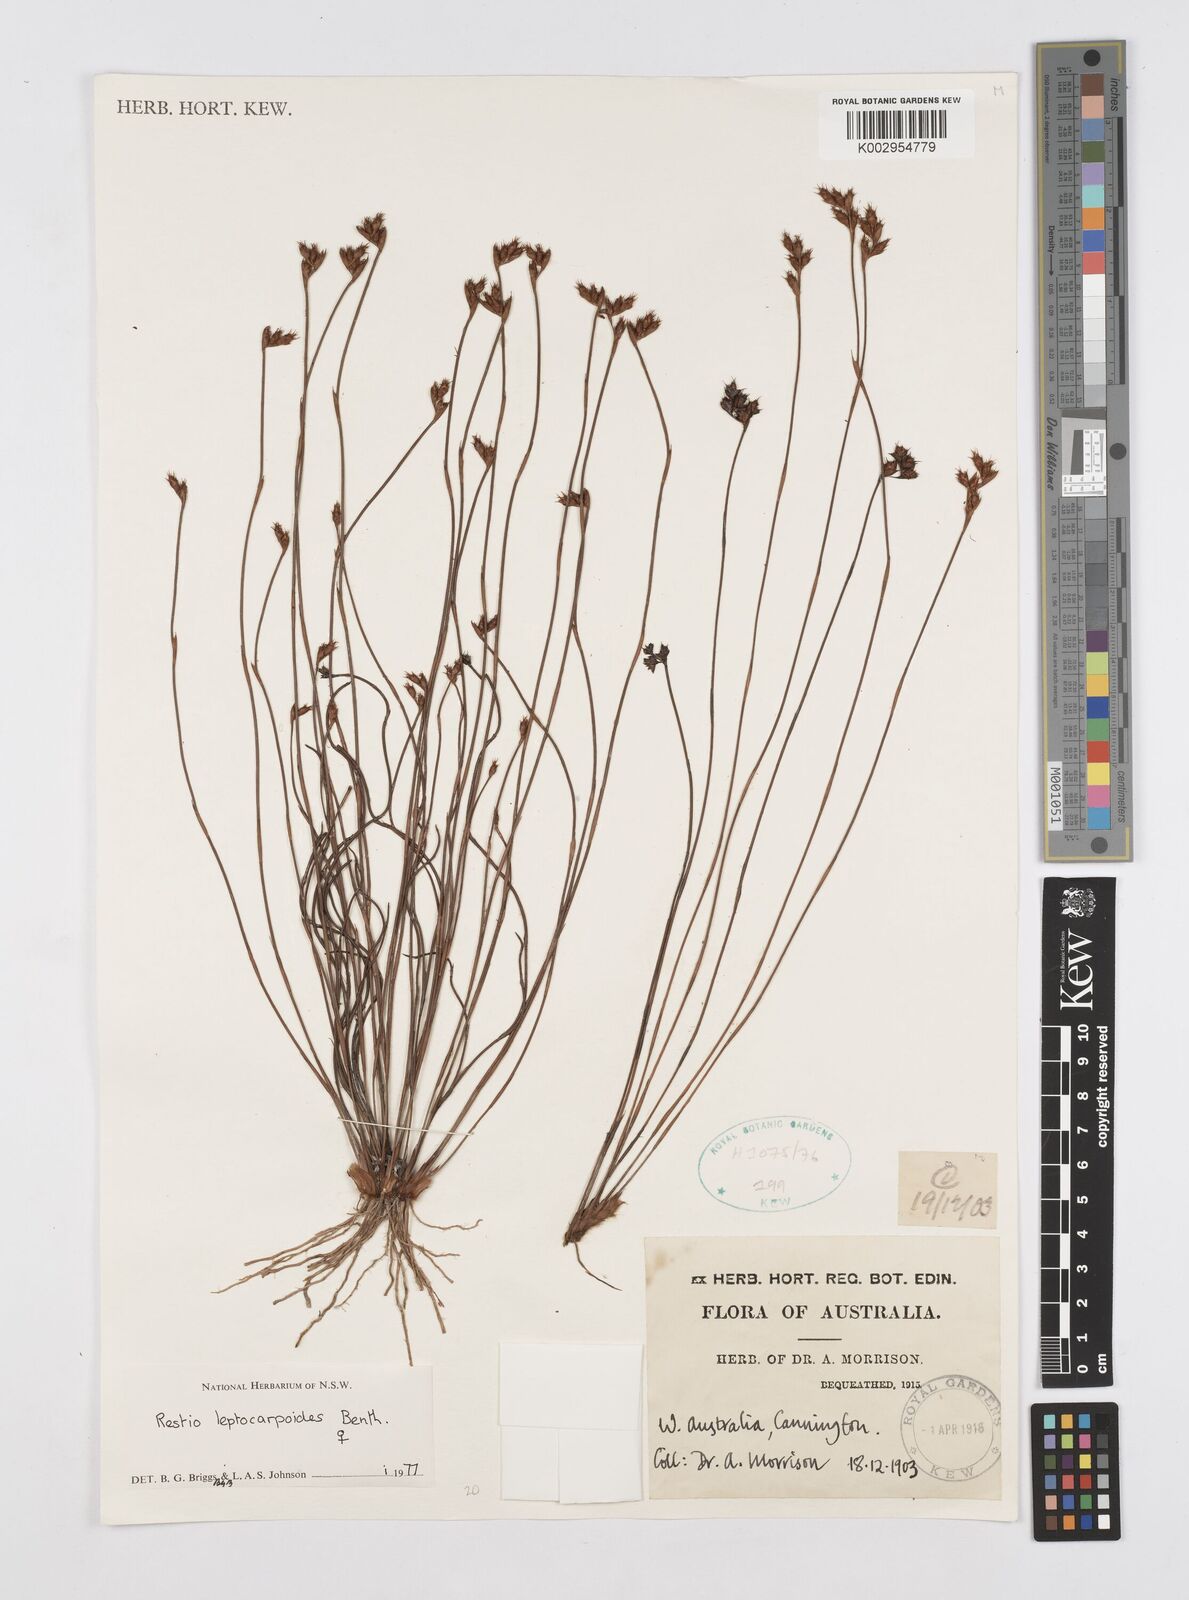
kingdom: Plantae
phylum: Tracheophyta
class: Liliopsida
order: Poales
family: Restionaceae
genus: Cytogonidium
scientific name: Cytogonidium leptocarpoides
